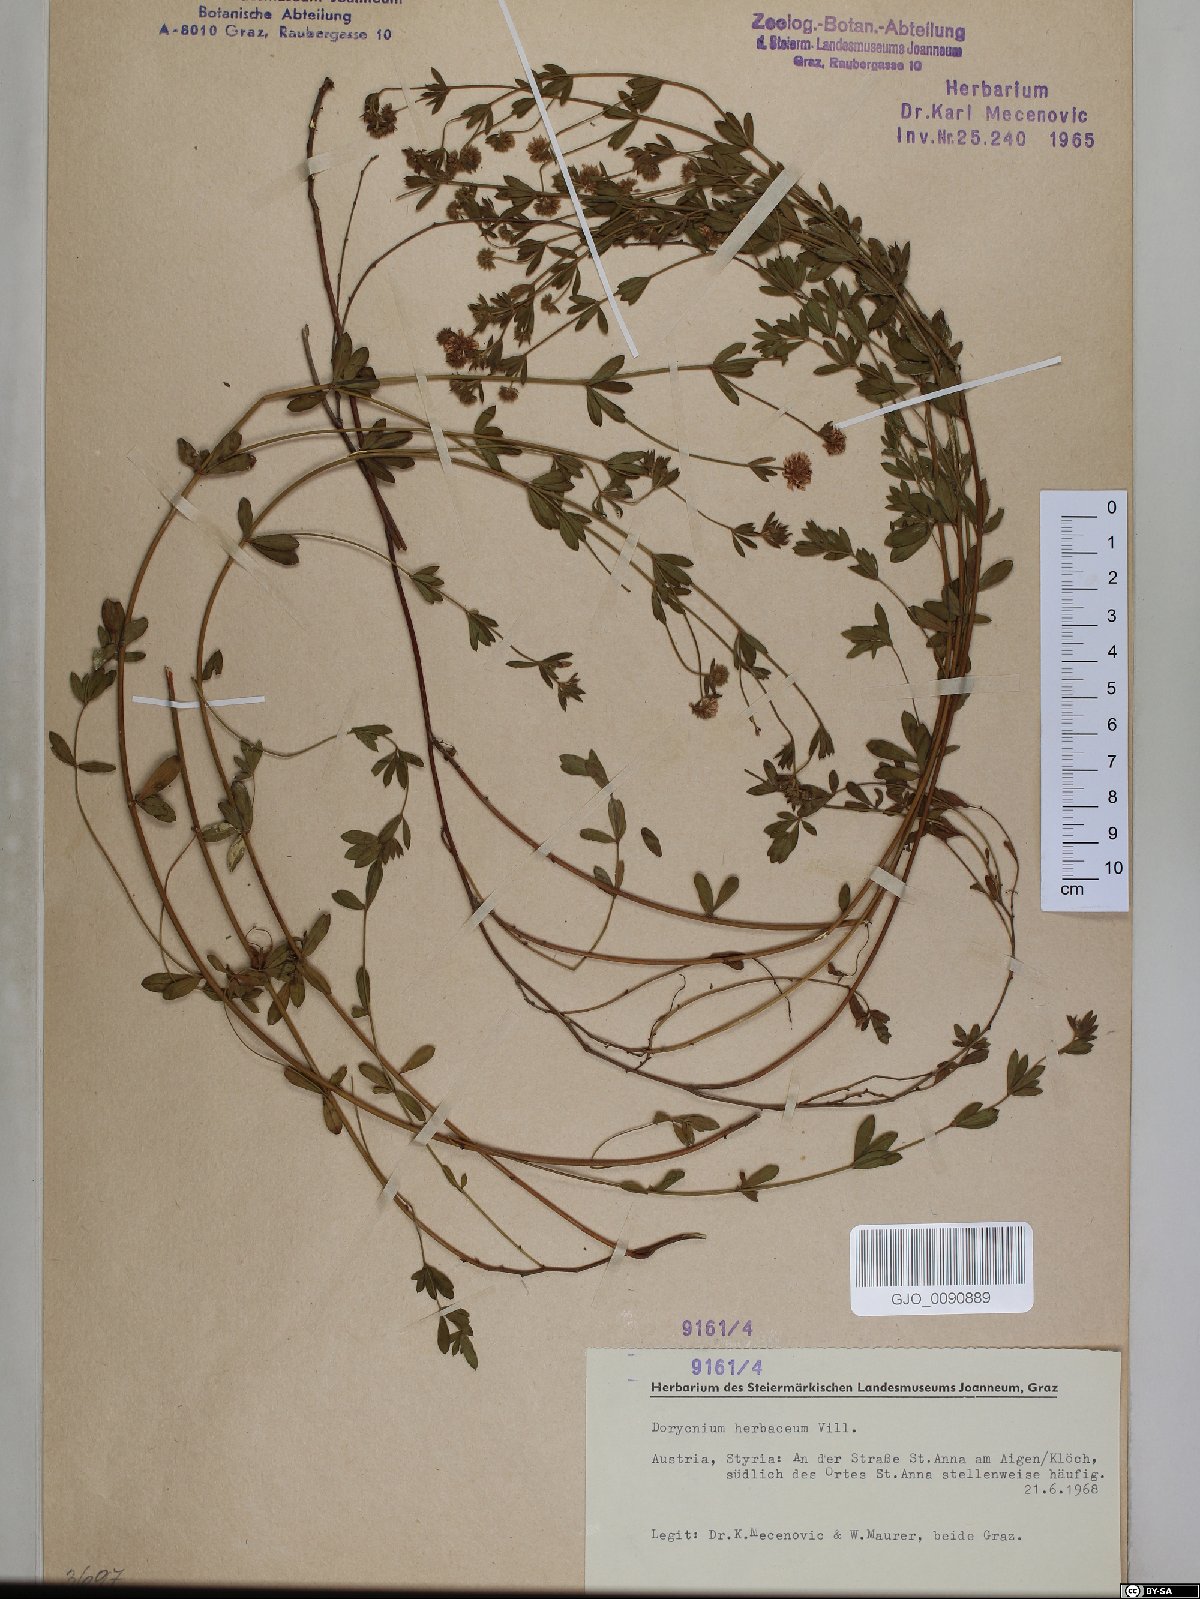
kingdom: Plantae
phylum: Tracheophyta
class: Magnoliopsida
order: Fabales
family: Fabaceae
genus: Lotus
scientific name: Lotus herbaceus
